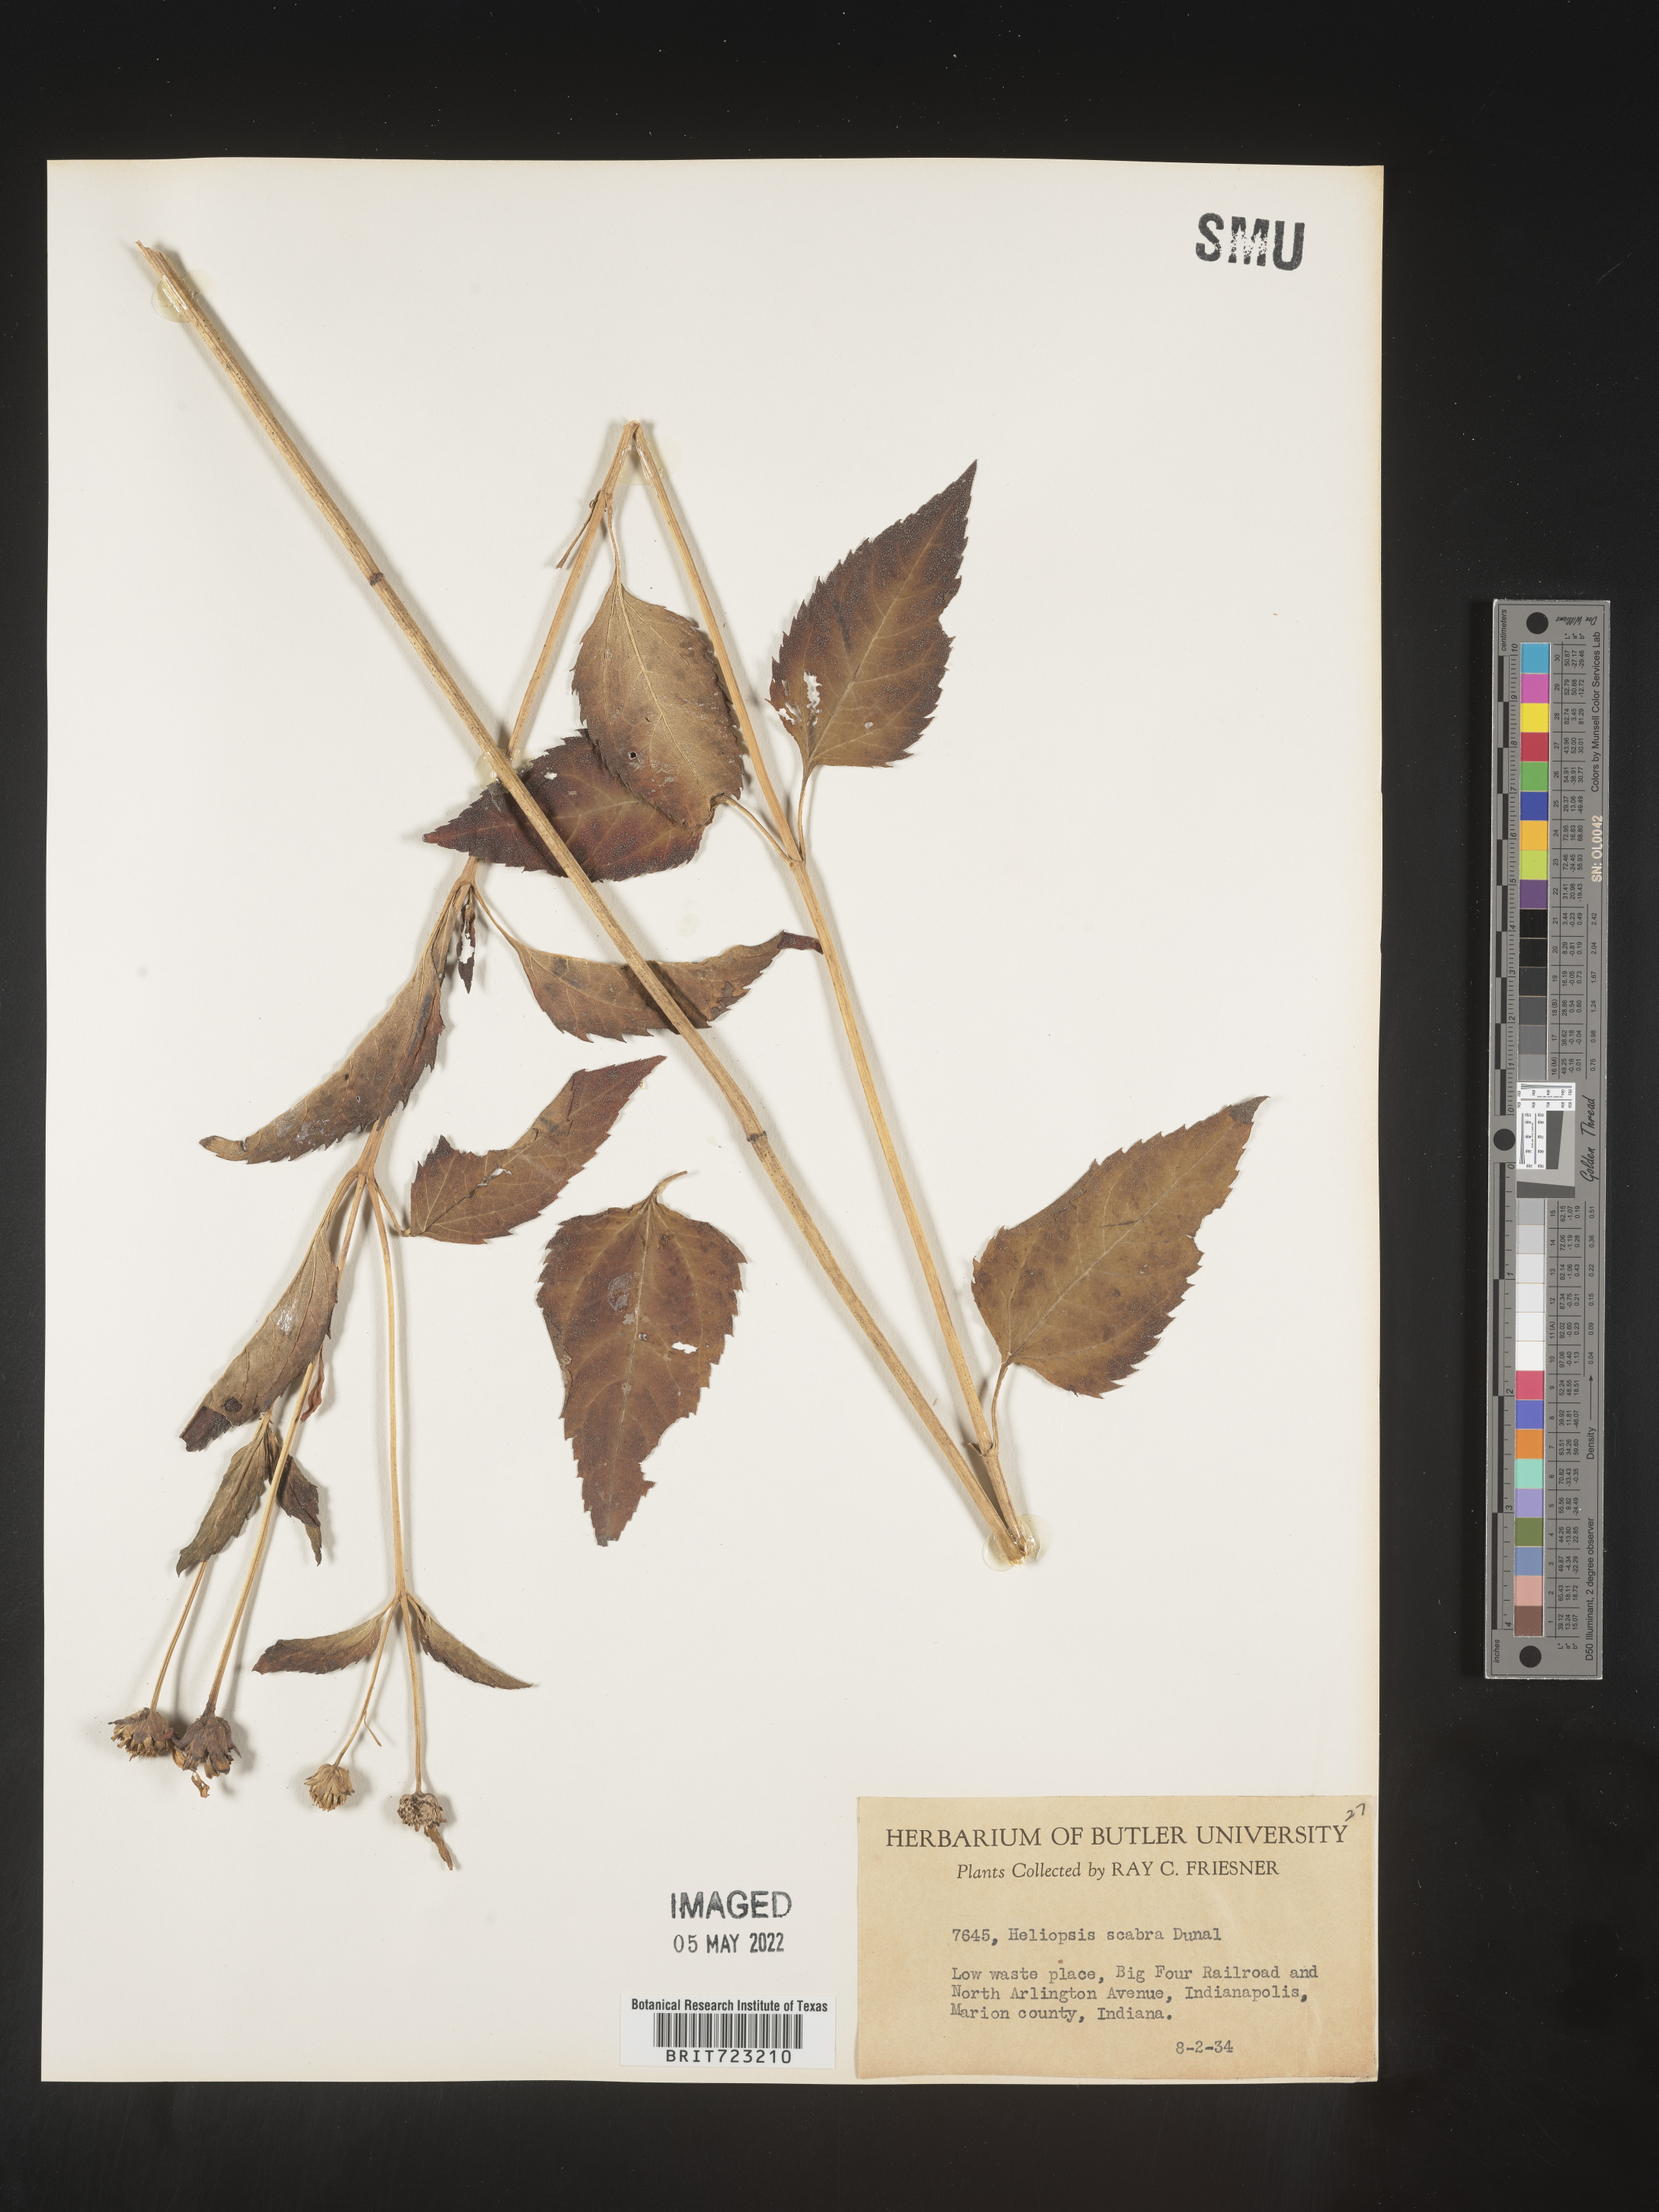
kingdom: Plantae
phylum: Tracheophyta
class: Magnoliopsida
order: Asterales
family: Asteraceae
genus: Heliopsis
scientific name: Heliopsis helianthoides
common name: False sunflower
